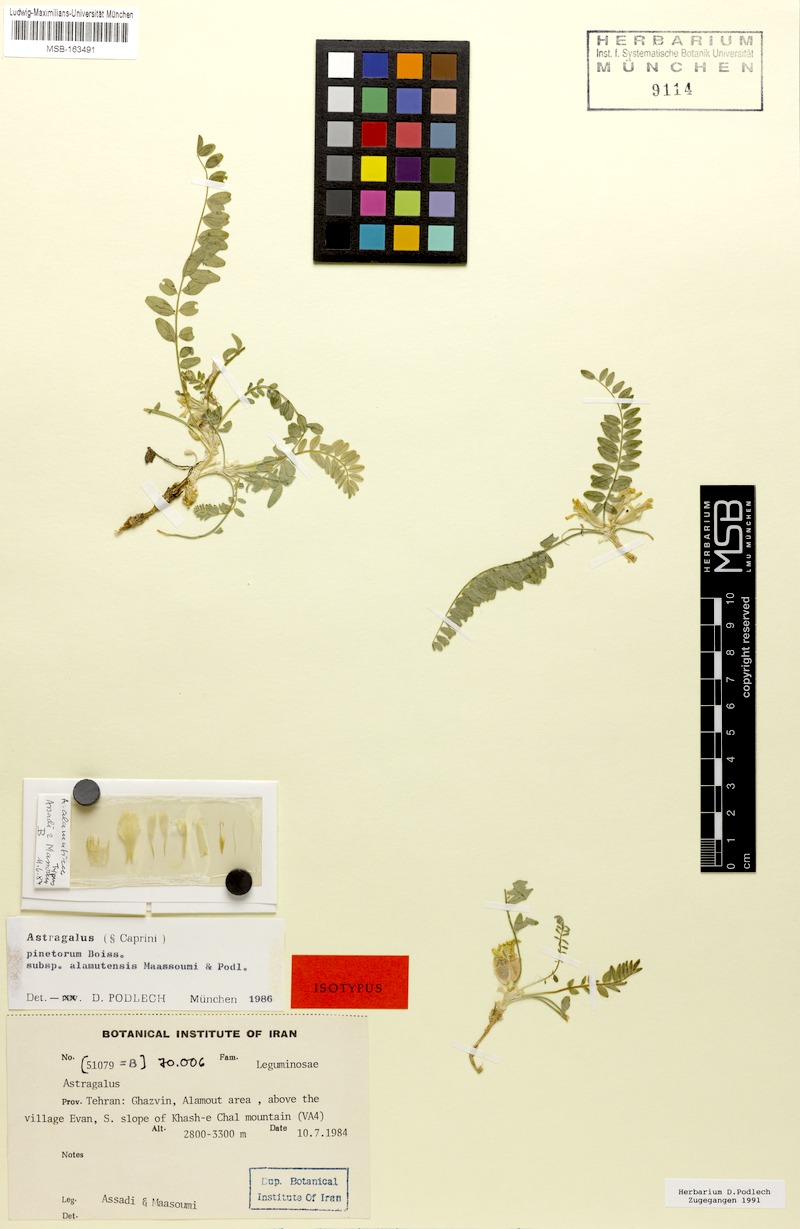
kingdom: Plantae
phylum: Tracheophyta
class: Magnoliopsida
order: Fabales
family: Fabaceae
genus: Astragalus
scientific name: Astragalus pinetorum
